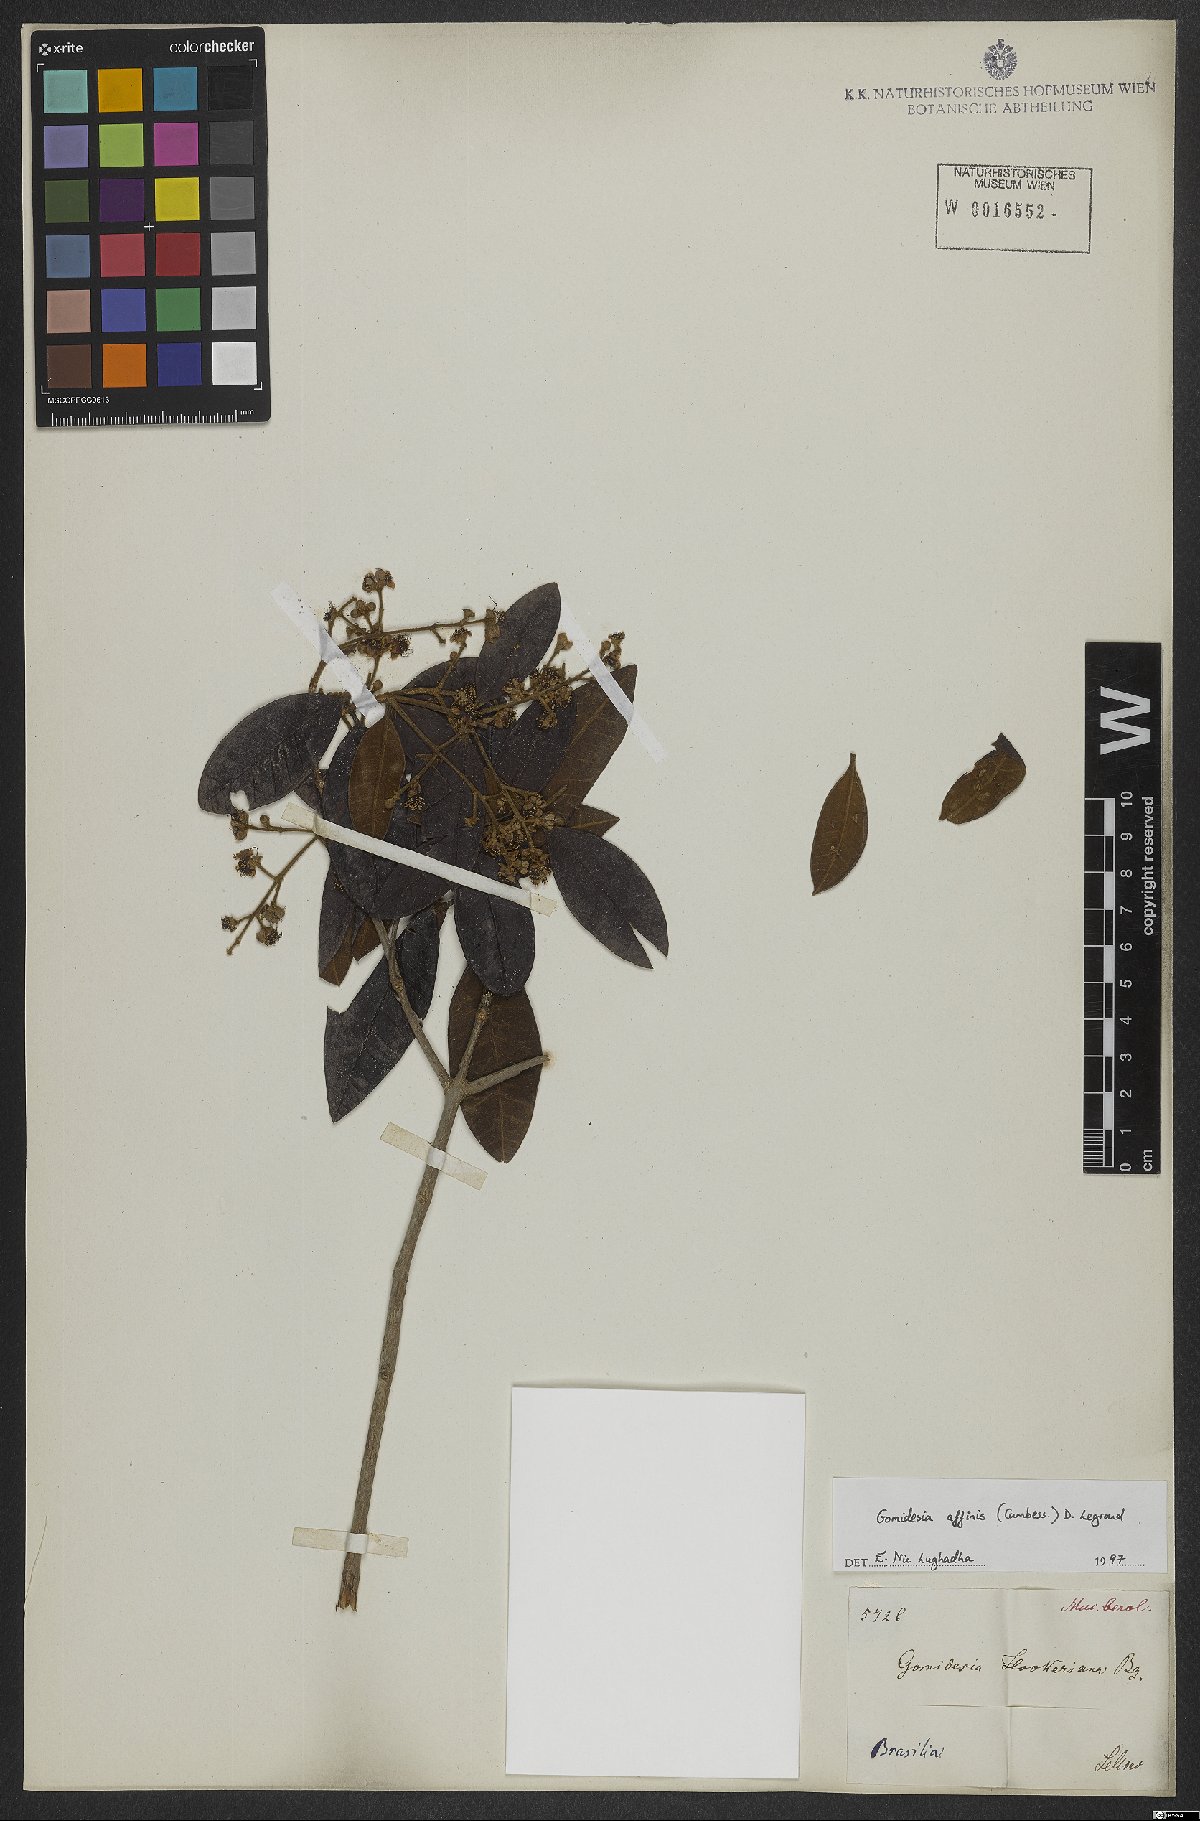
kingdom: Plantae
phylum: Tracheophyta
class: Magnoliopsida
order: Myrtales
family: Myrtaceae
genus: Myrcia
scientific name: Myrcia hebepetala
